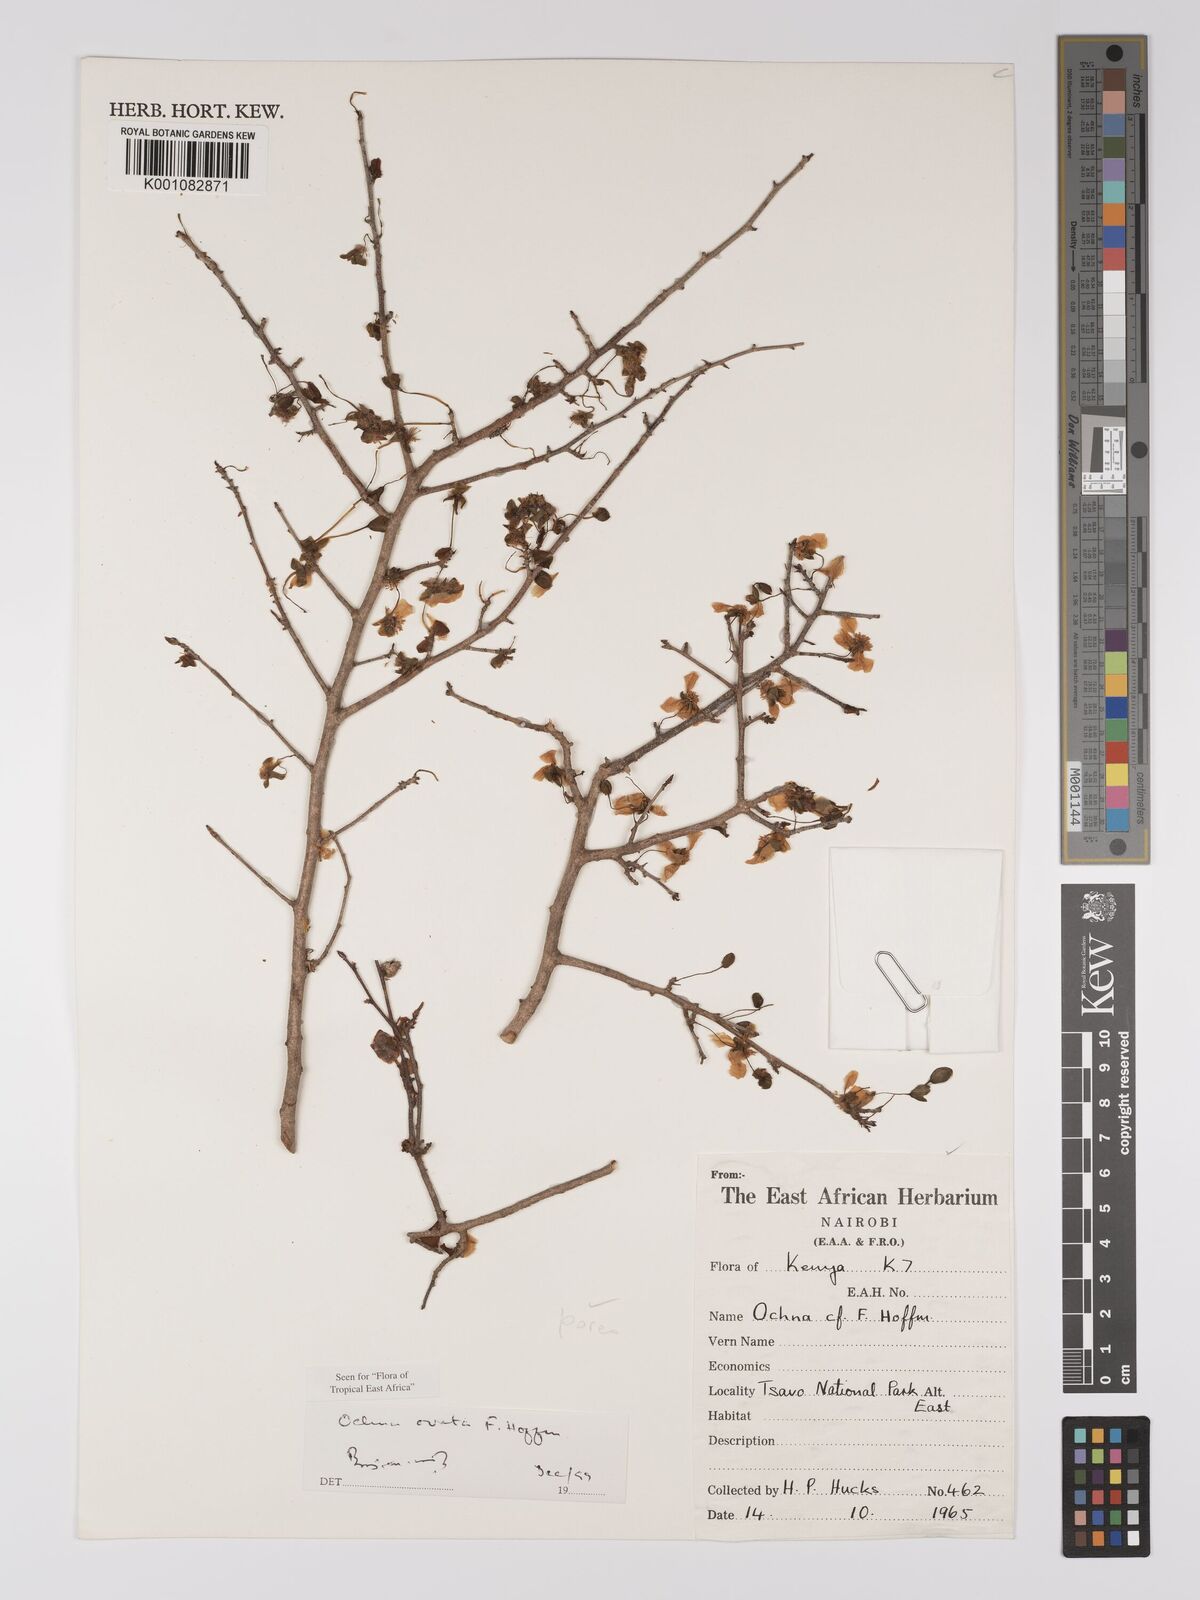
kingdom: Plantae
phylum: Tracheophyta
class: Magnoliopsida
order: Malpighiales
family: Ochnaceae
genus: Ochna
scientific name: Ochna ovata
